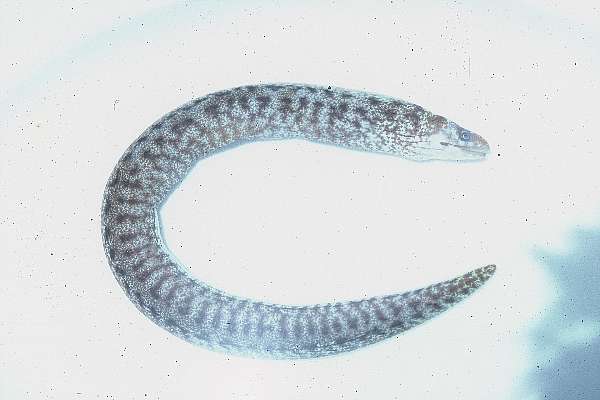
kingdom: Animalia
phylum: Chordata
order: Anguilliformes
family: Muraenidae
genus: Gymnothorax
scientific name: Gymnothorax undulatus
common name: Leopard moray
